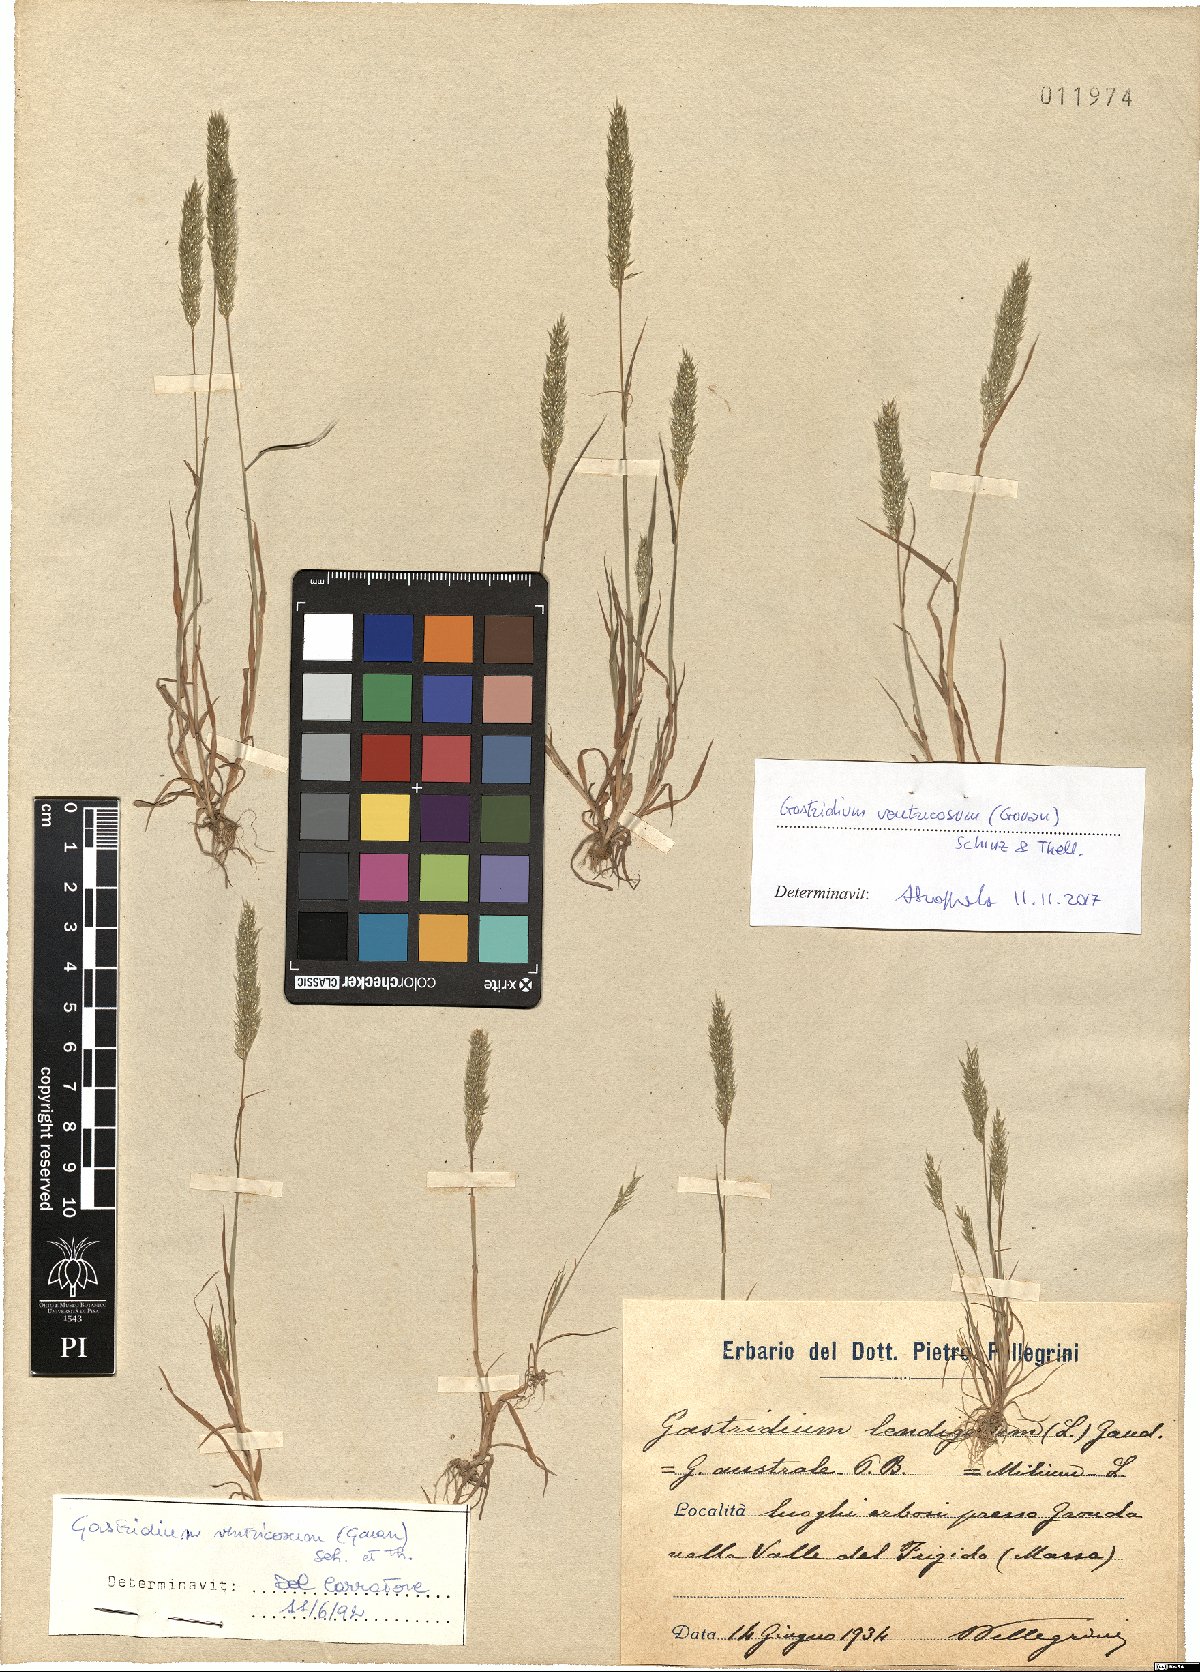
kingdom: Plantae
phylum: Tracheophyta
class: Liliopsida
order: Poales
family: Poaceae
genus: Gastridium
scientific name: Gastridium ventricosum
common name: Nit-grass
